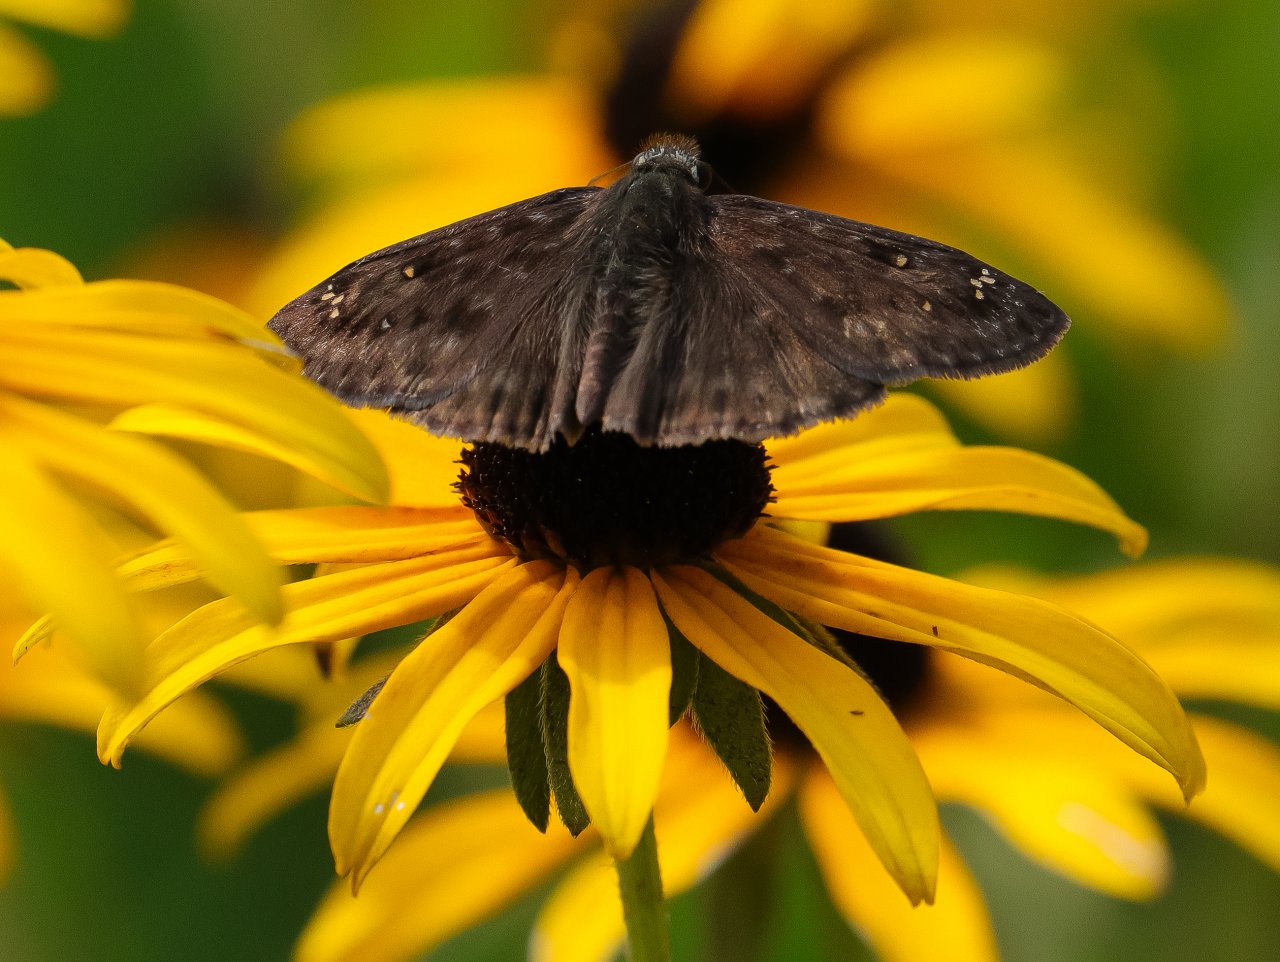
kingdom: Animalia
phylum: Arthropoda
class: Insecta
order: Lepidoptera
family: Hesperiidae
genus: Gesta
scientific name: Gesta
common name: Horace's Duskywing
